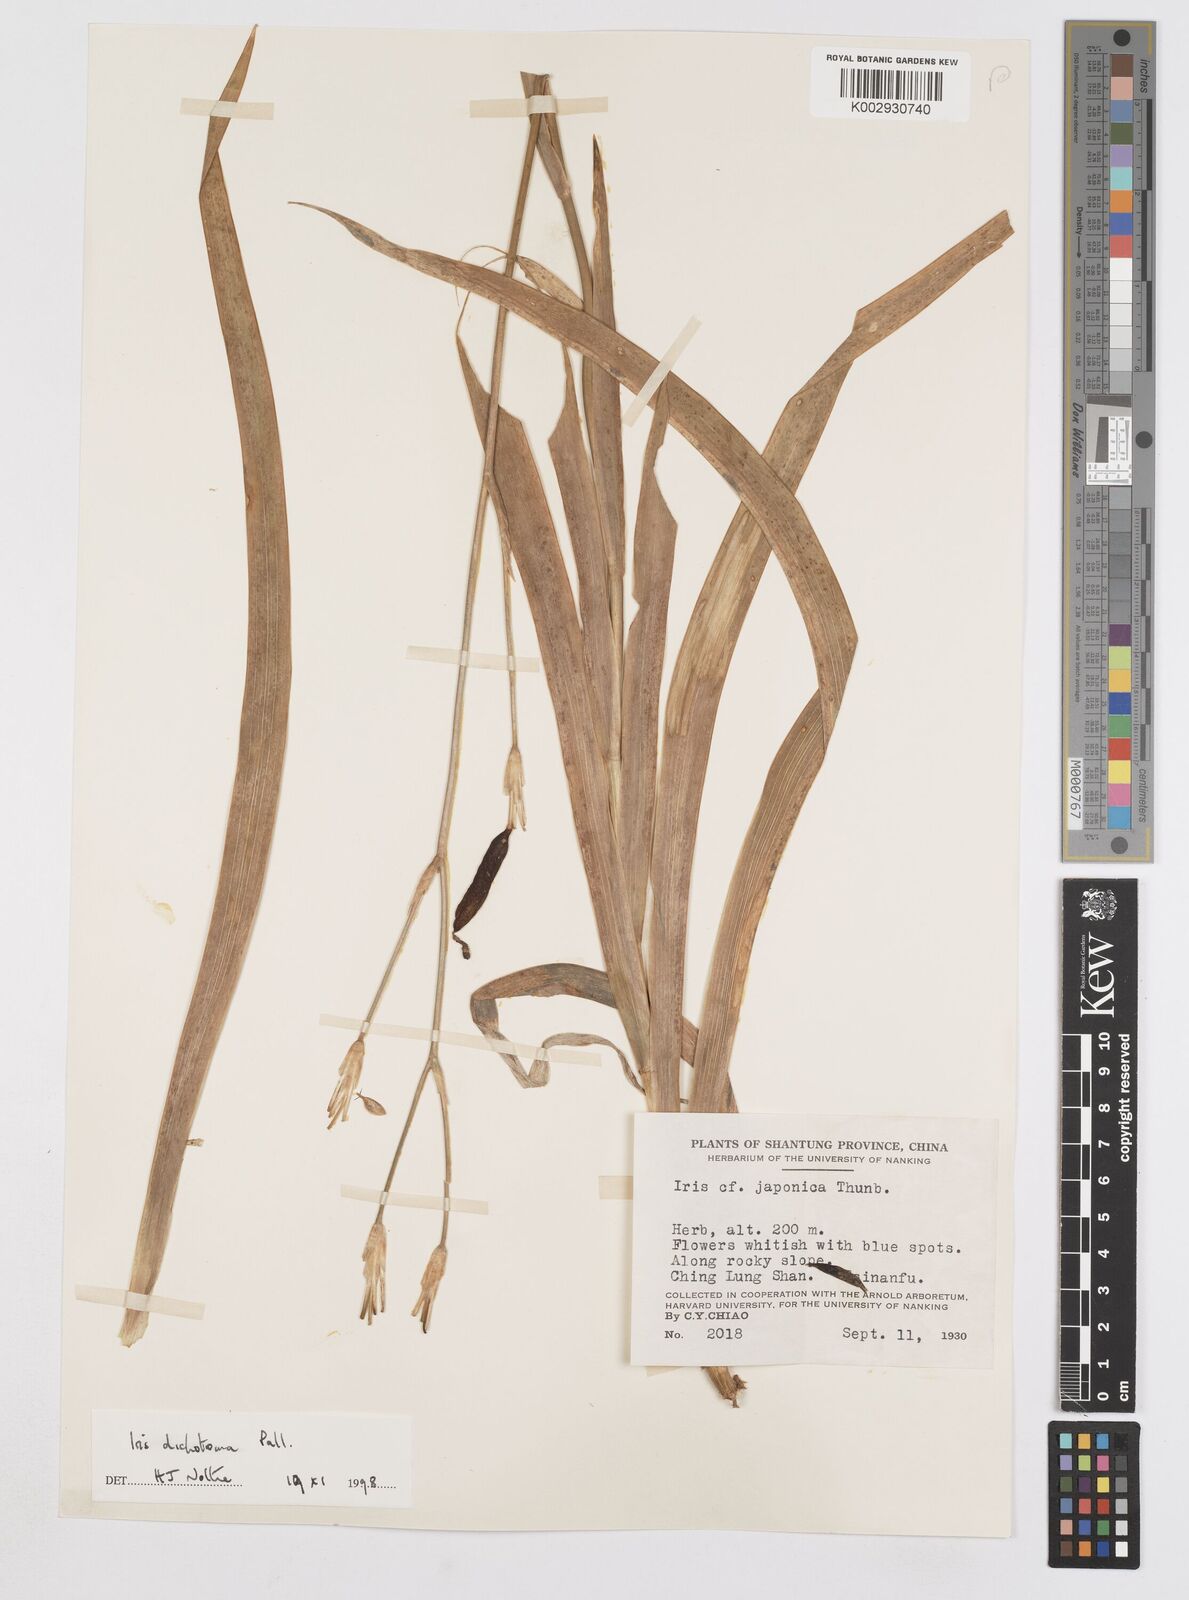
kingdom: Plantae
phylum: Tracheophyta
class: Liliopsida
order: Asparagales
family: Iridaceae
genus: Iris
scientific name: Iris dichotoma
